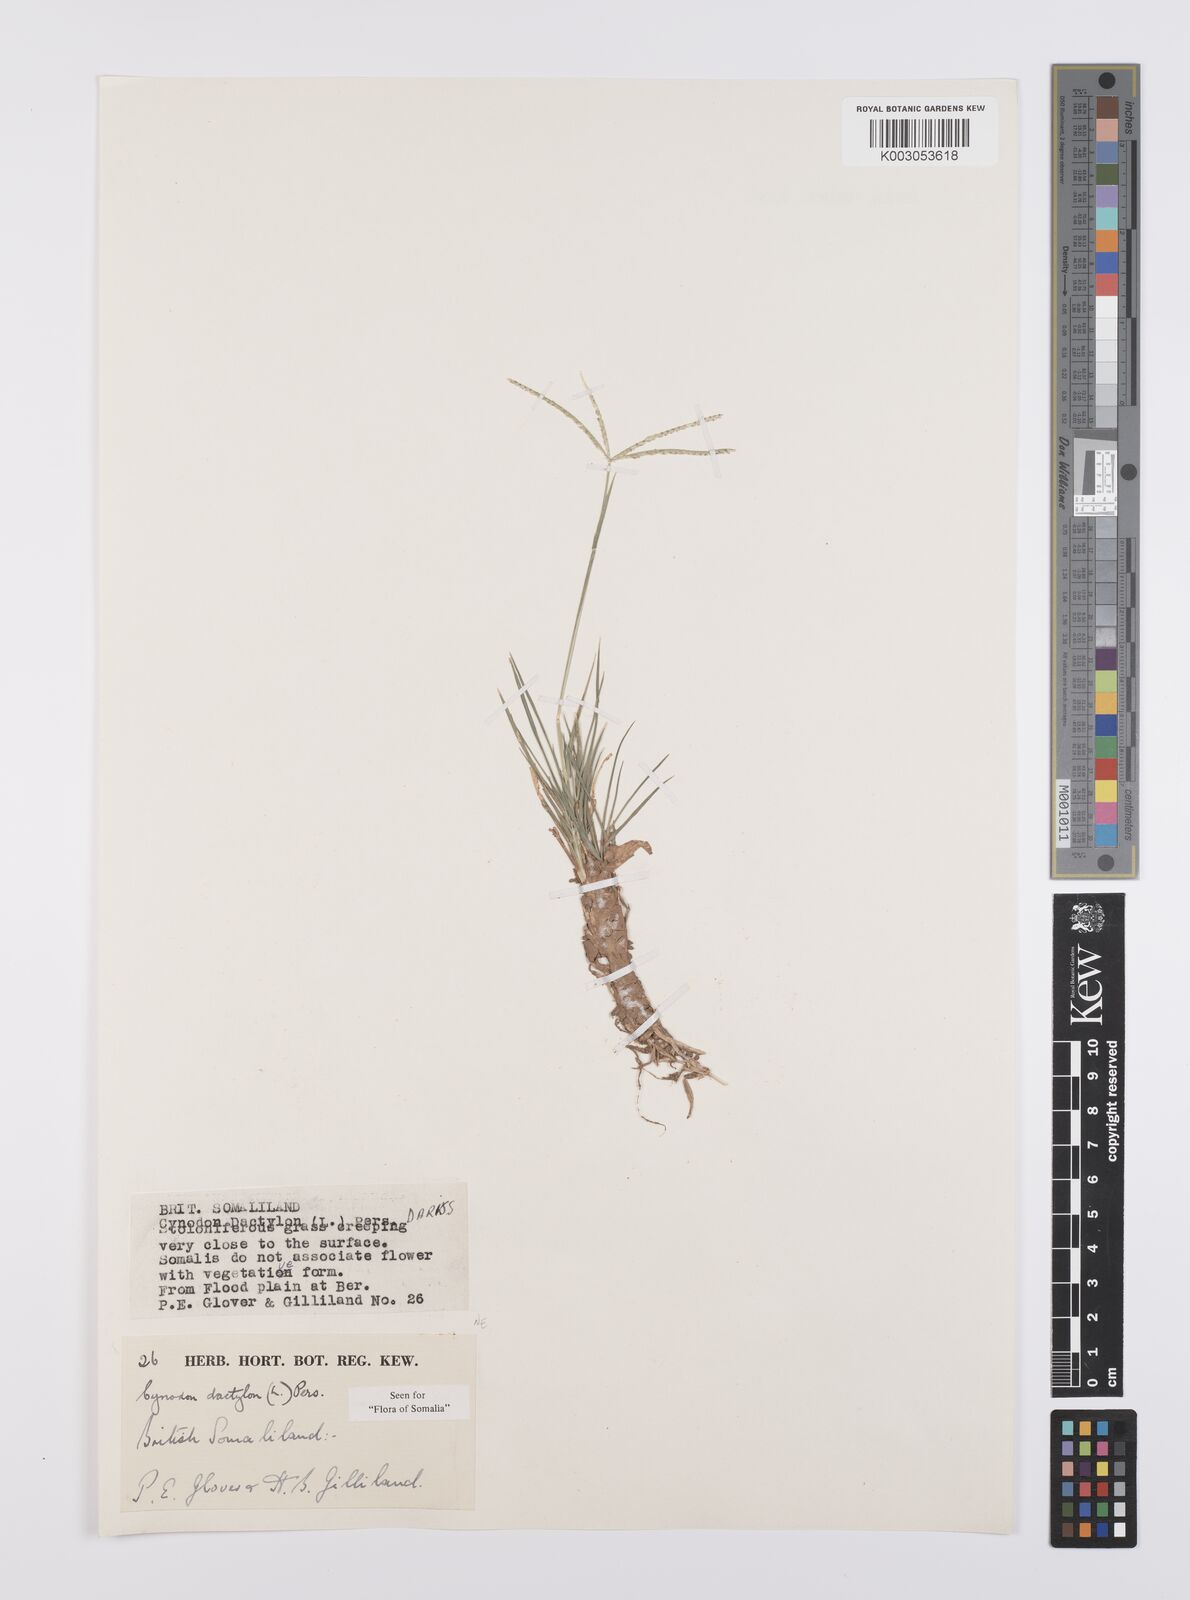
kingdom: Plantae
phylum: Tracheophyta
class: Liliopsida
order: Poales
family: Poaceae
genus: Cynodon
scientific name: Cynodon dactylon
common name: Bermuda grass
